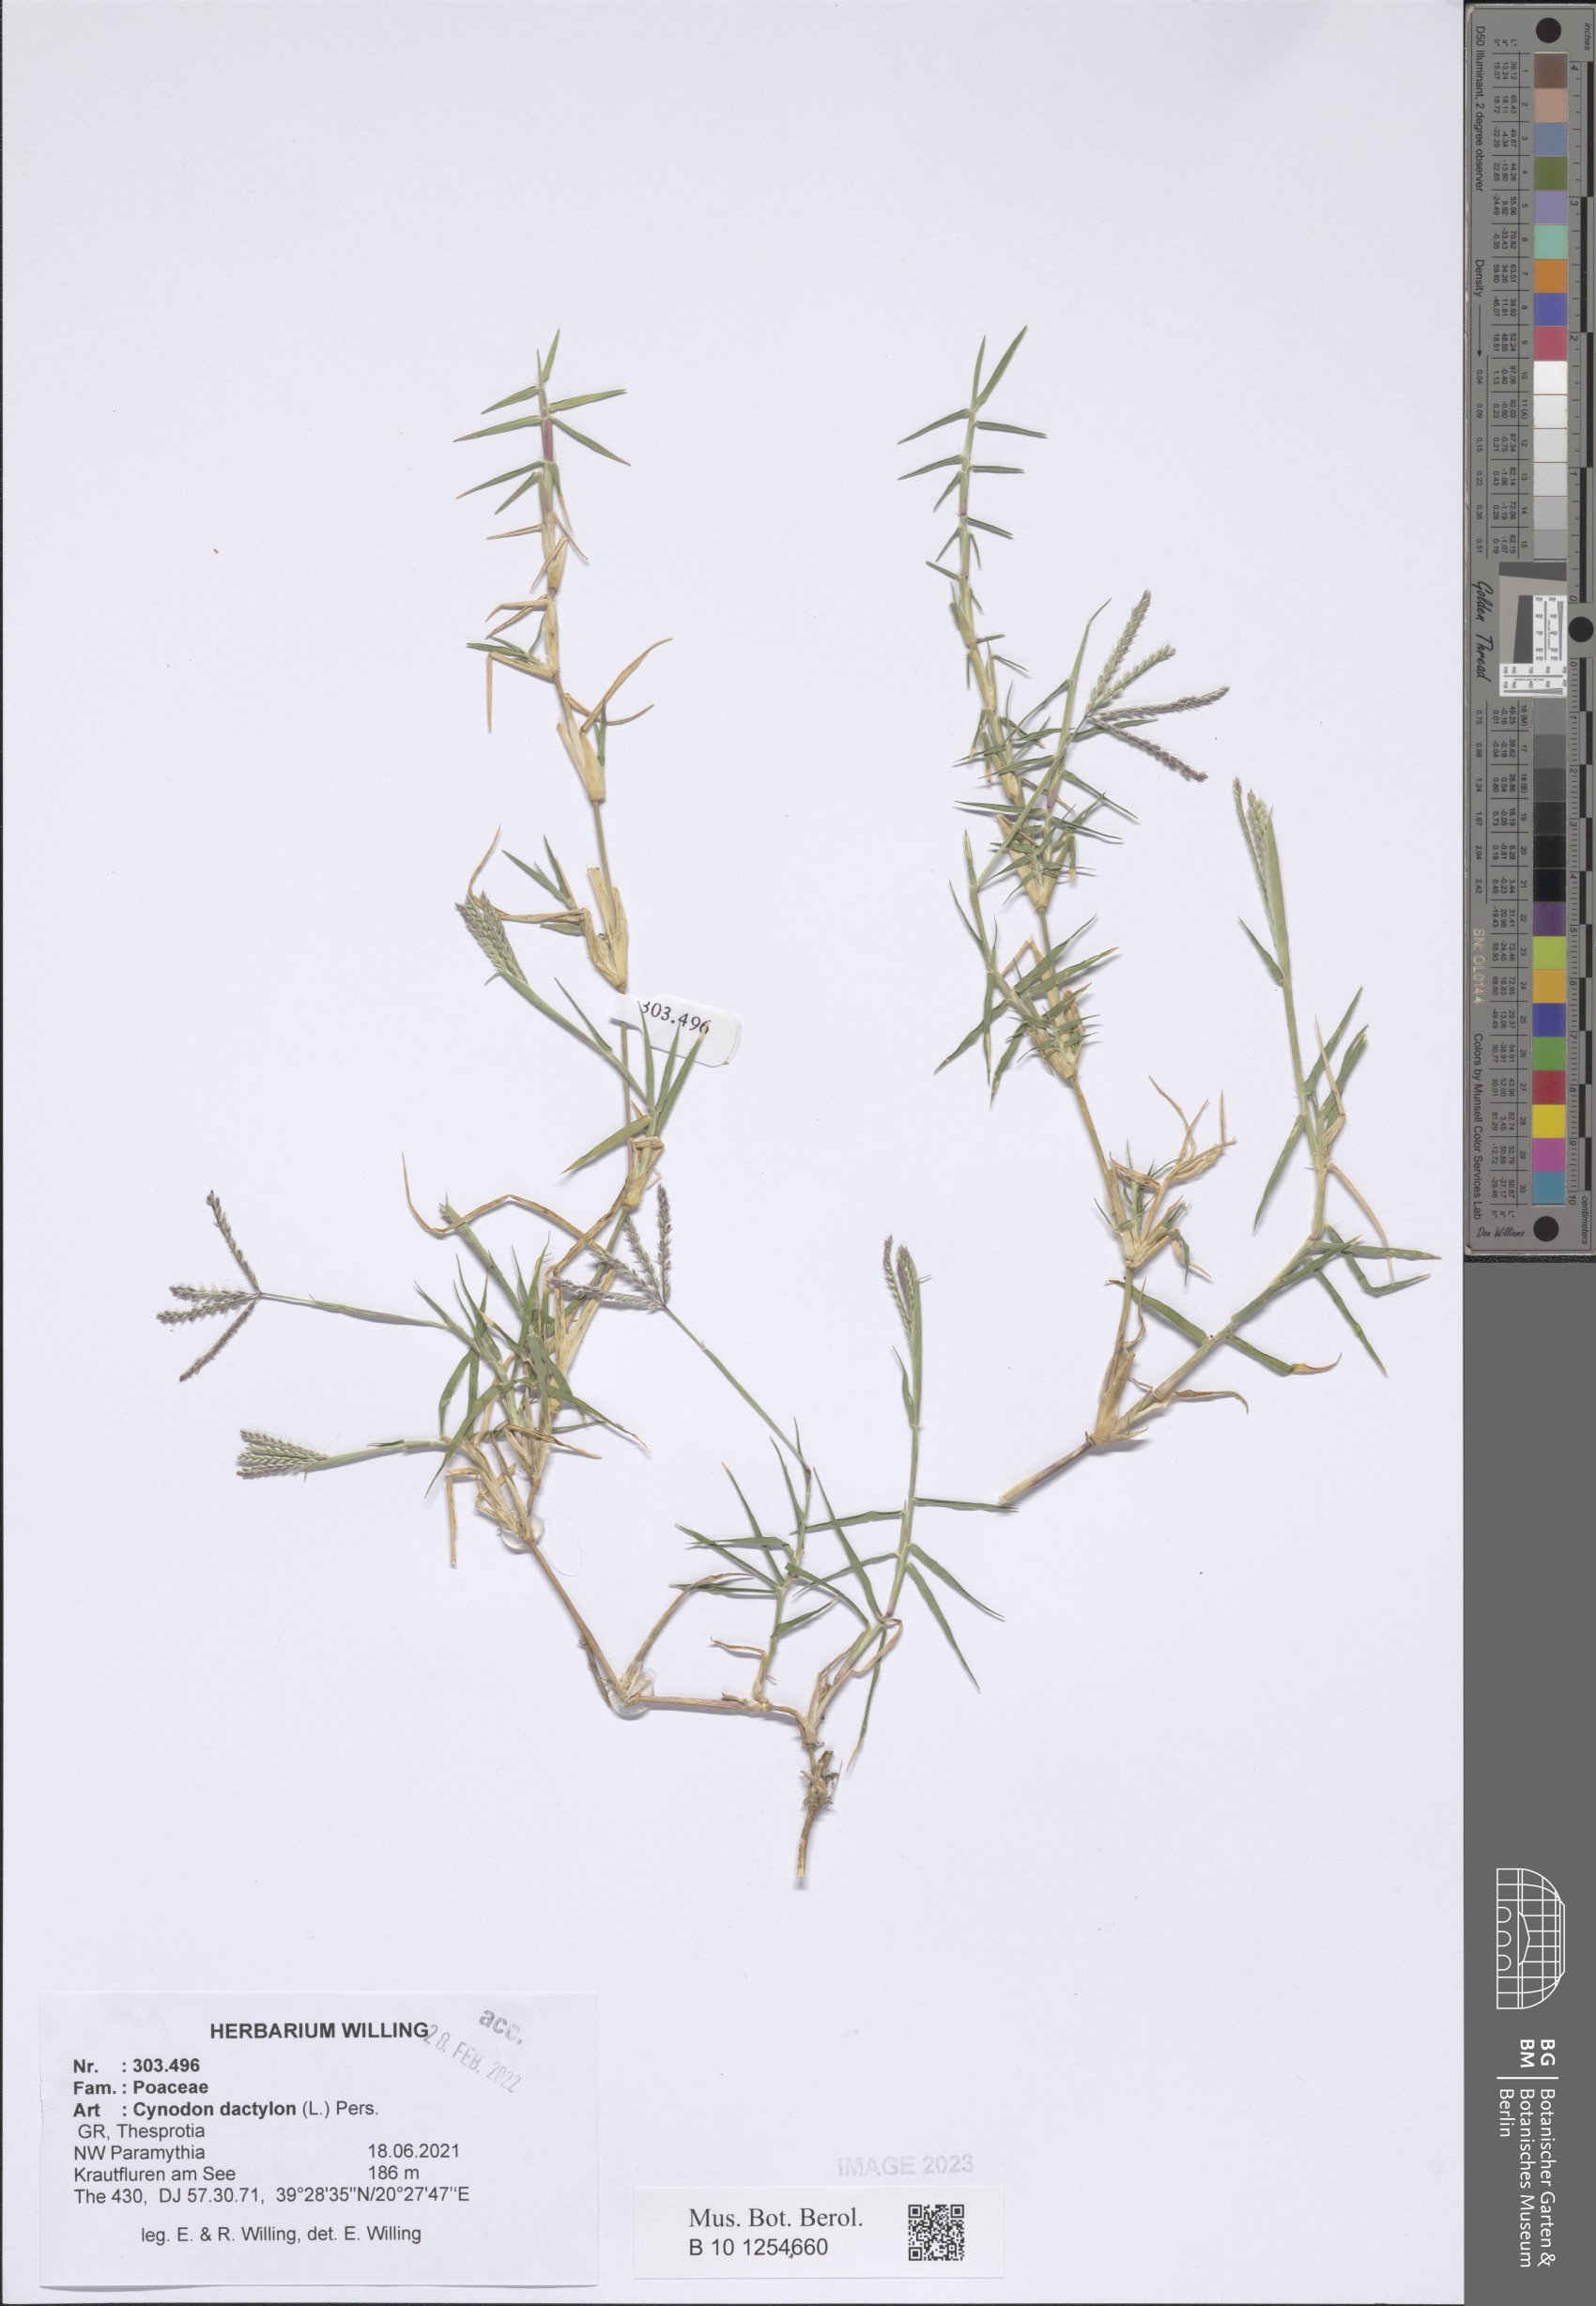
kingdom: Plantae
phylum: Tracheophyta
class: Liliopsida
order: Poales
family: Poaceae
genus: Cynodon
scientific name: Cynodon dactylon
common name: Bermuda grass
